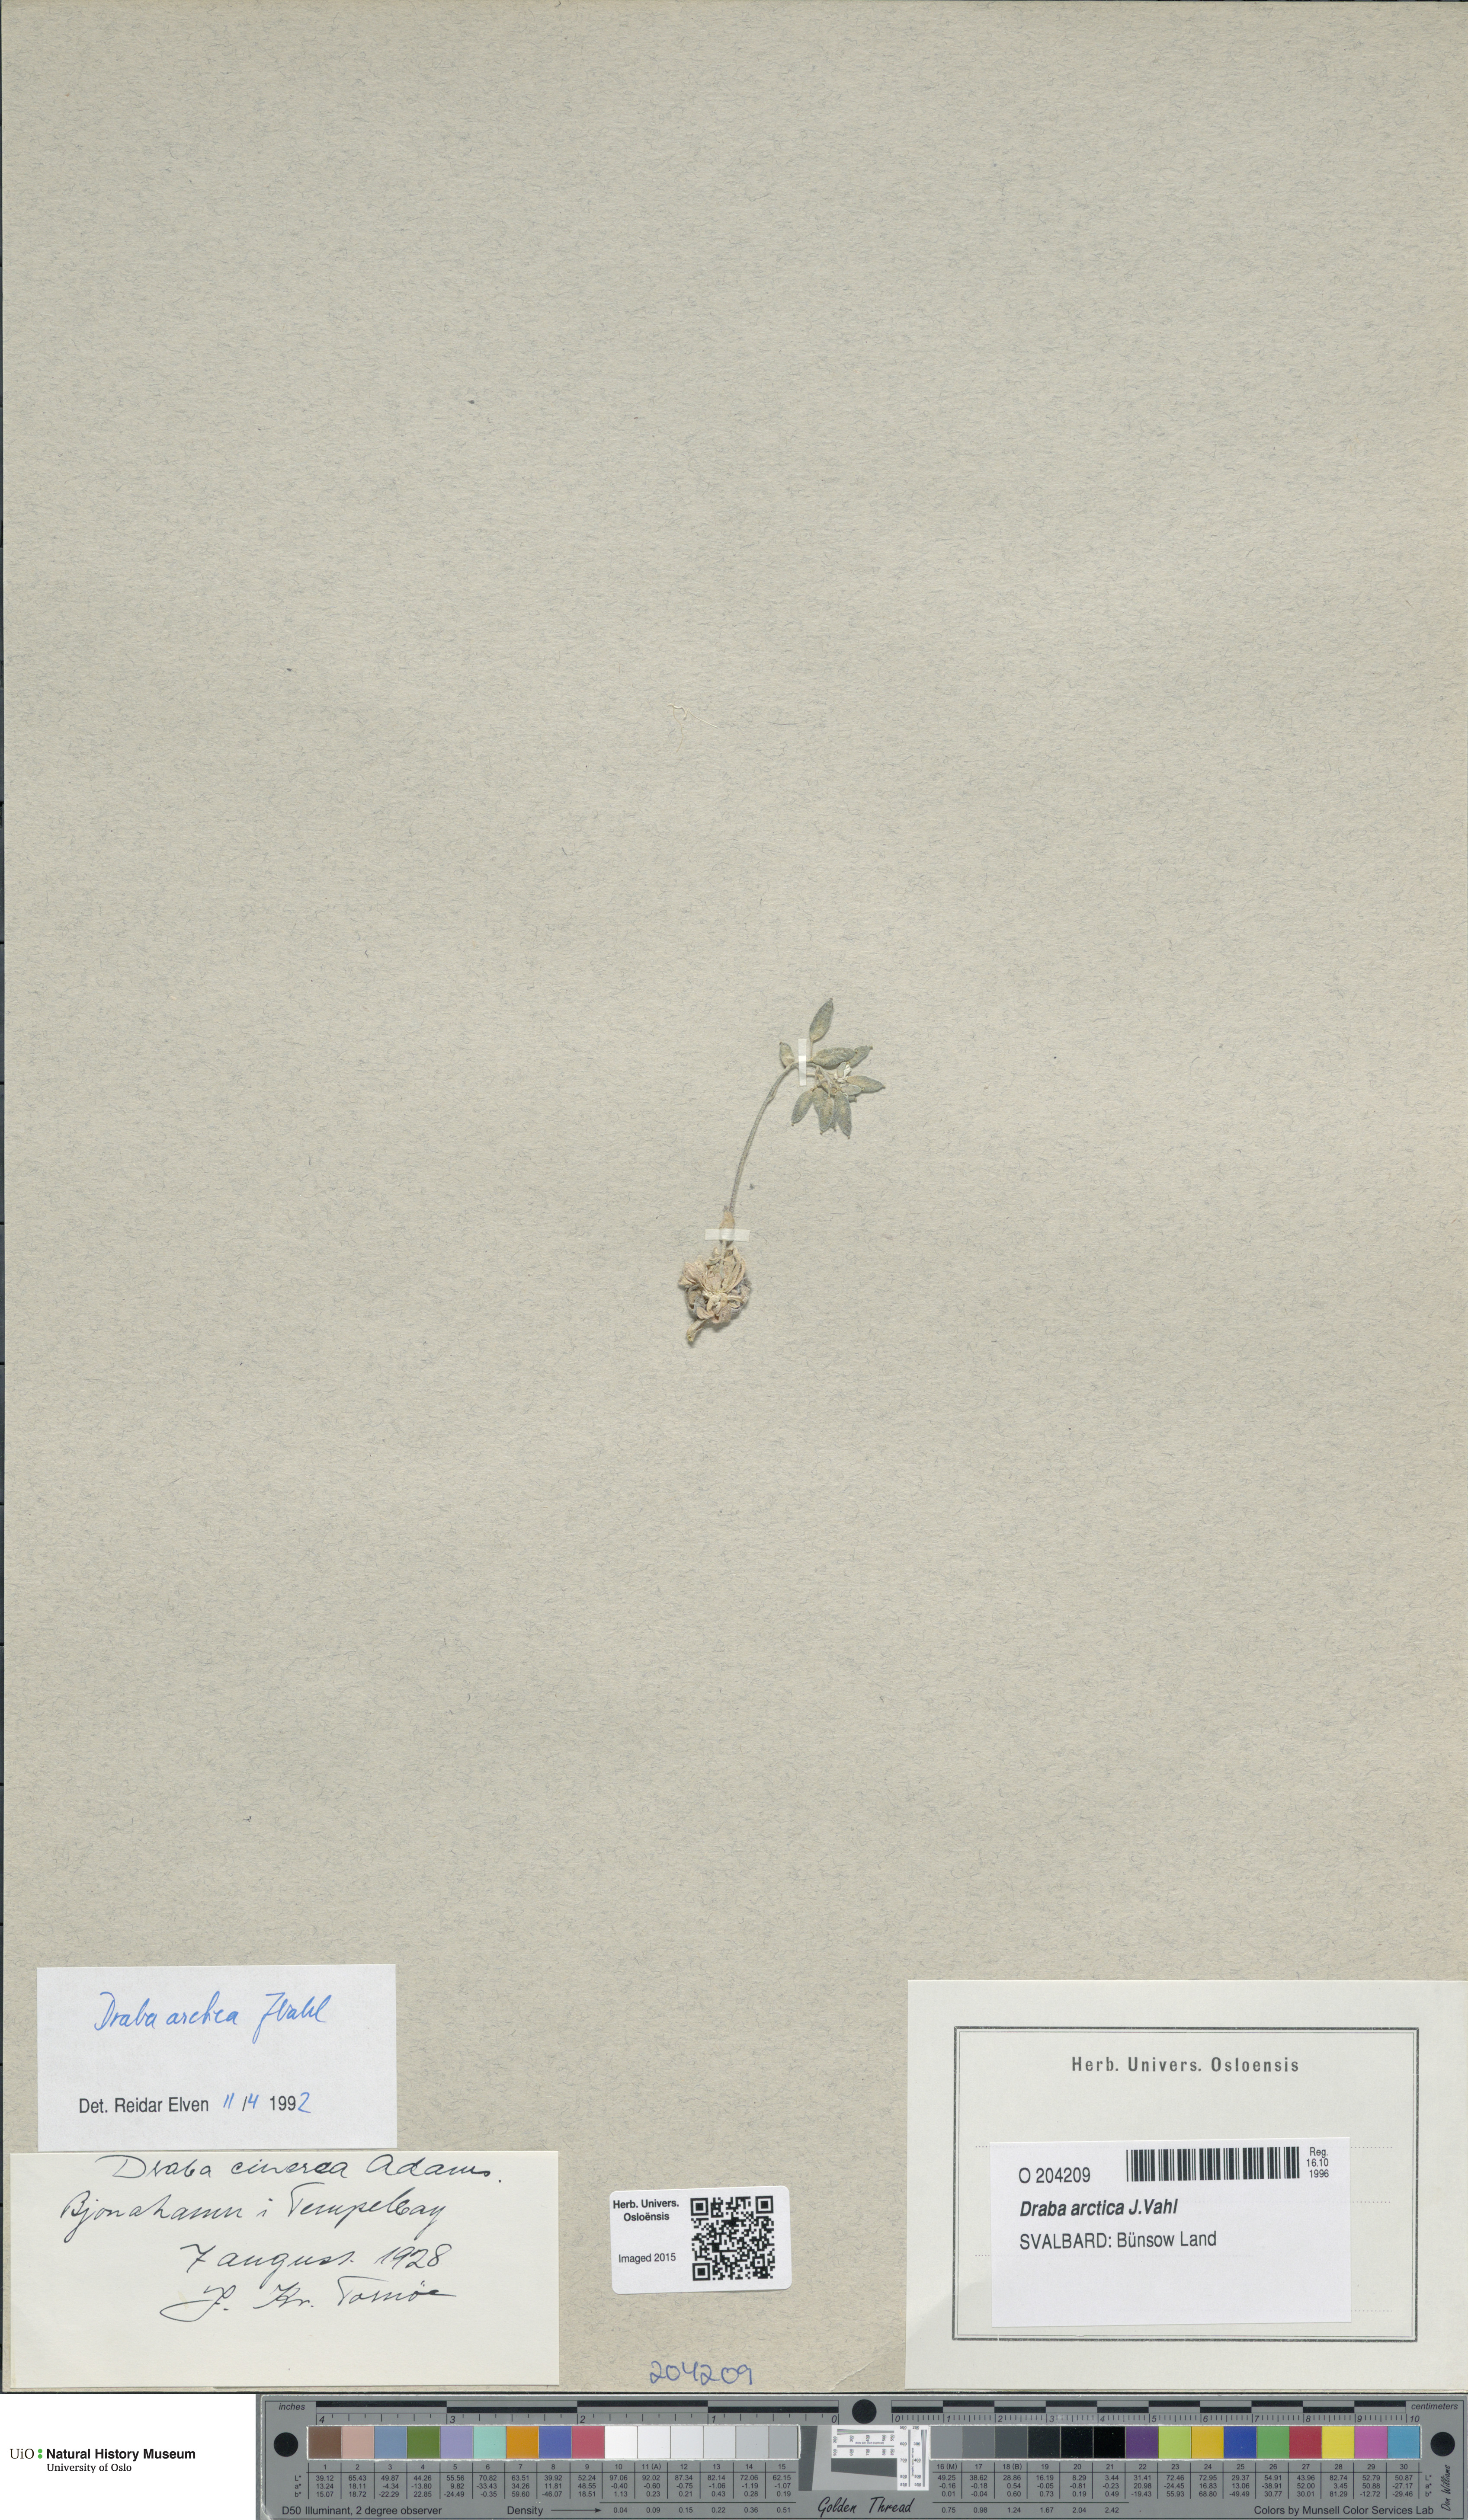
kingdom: Plantae
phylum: Tracheophyta
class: Magnoliopsida
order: Brassicales
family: Brassicaceae
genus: Draba
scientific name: Draba arctica
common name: Arctic draba
